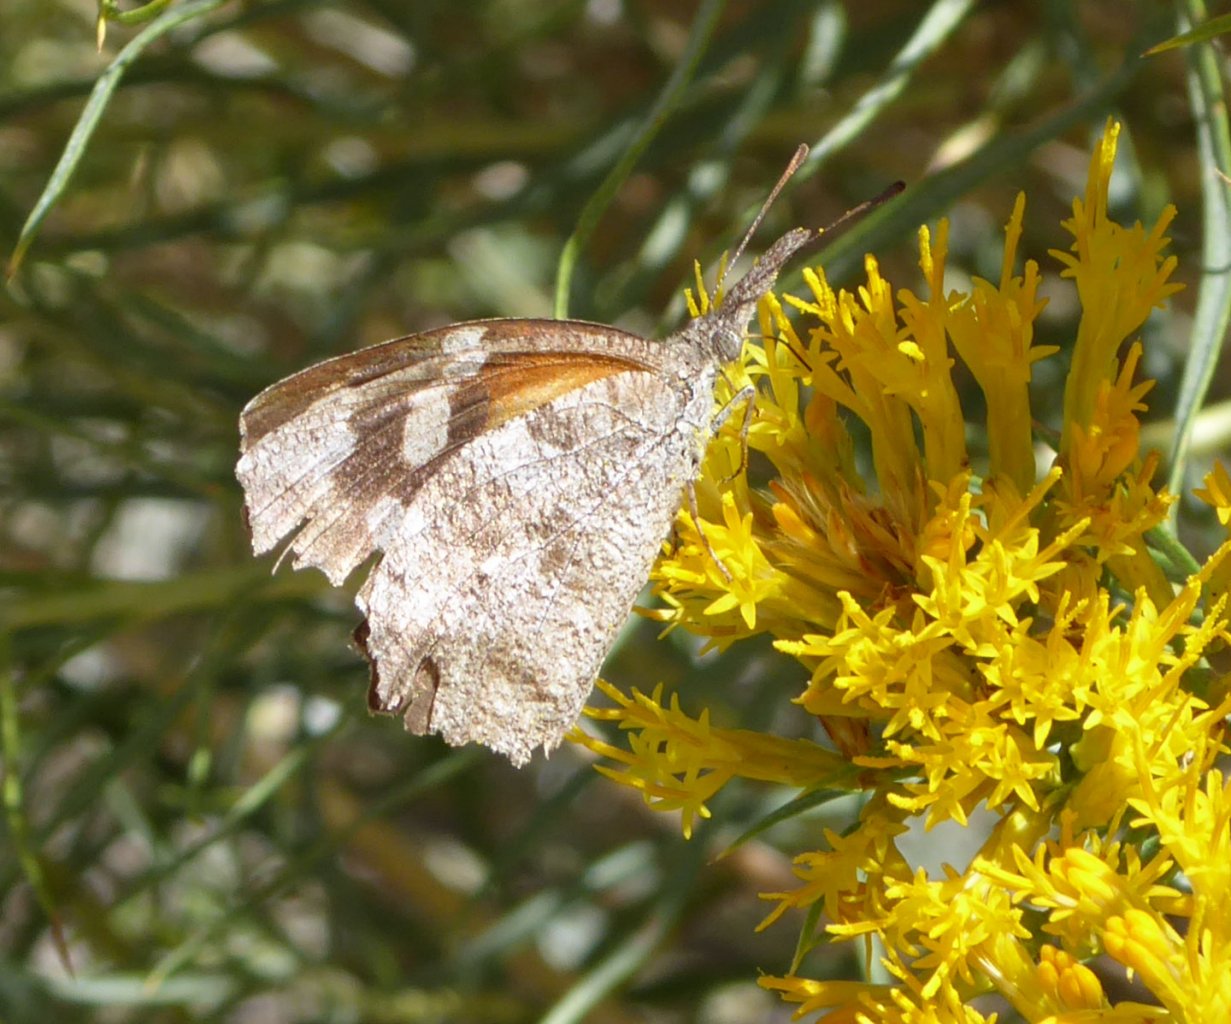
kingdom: Animalia
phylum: Arthropoda
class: Insecta
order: Lepidoptera
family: Nymphalidae
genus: Libytheana
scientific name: Libytheana carinenta
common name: American Snout
